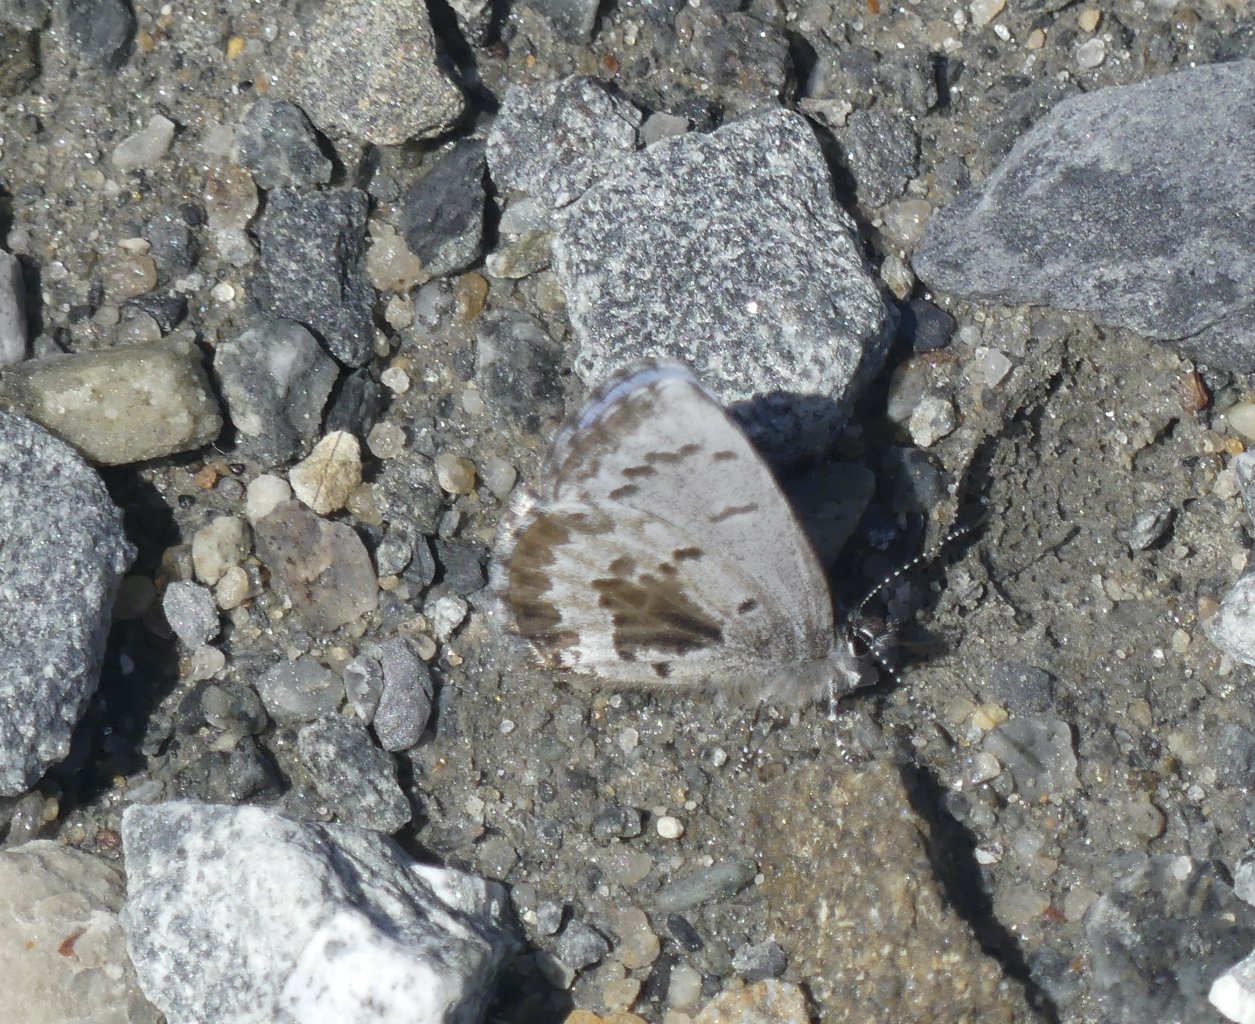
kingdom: Animalia
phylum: Arthropoda
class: Insecta
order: Lepidoptera
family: Lycaenidae
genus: Celastrina
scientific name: Celastrina ladon
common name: Spring Azure
